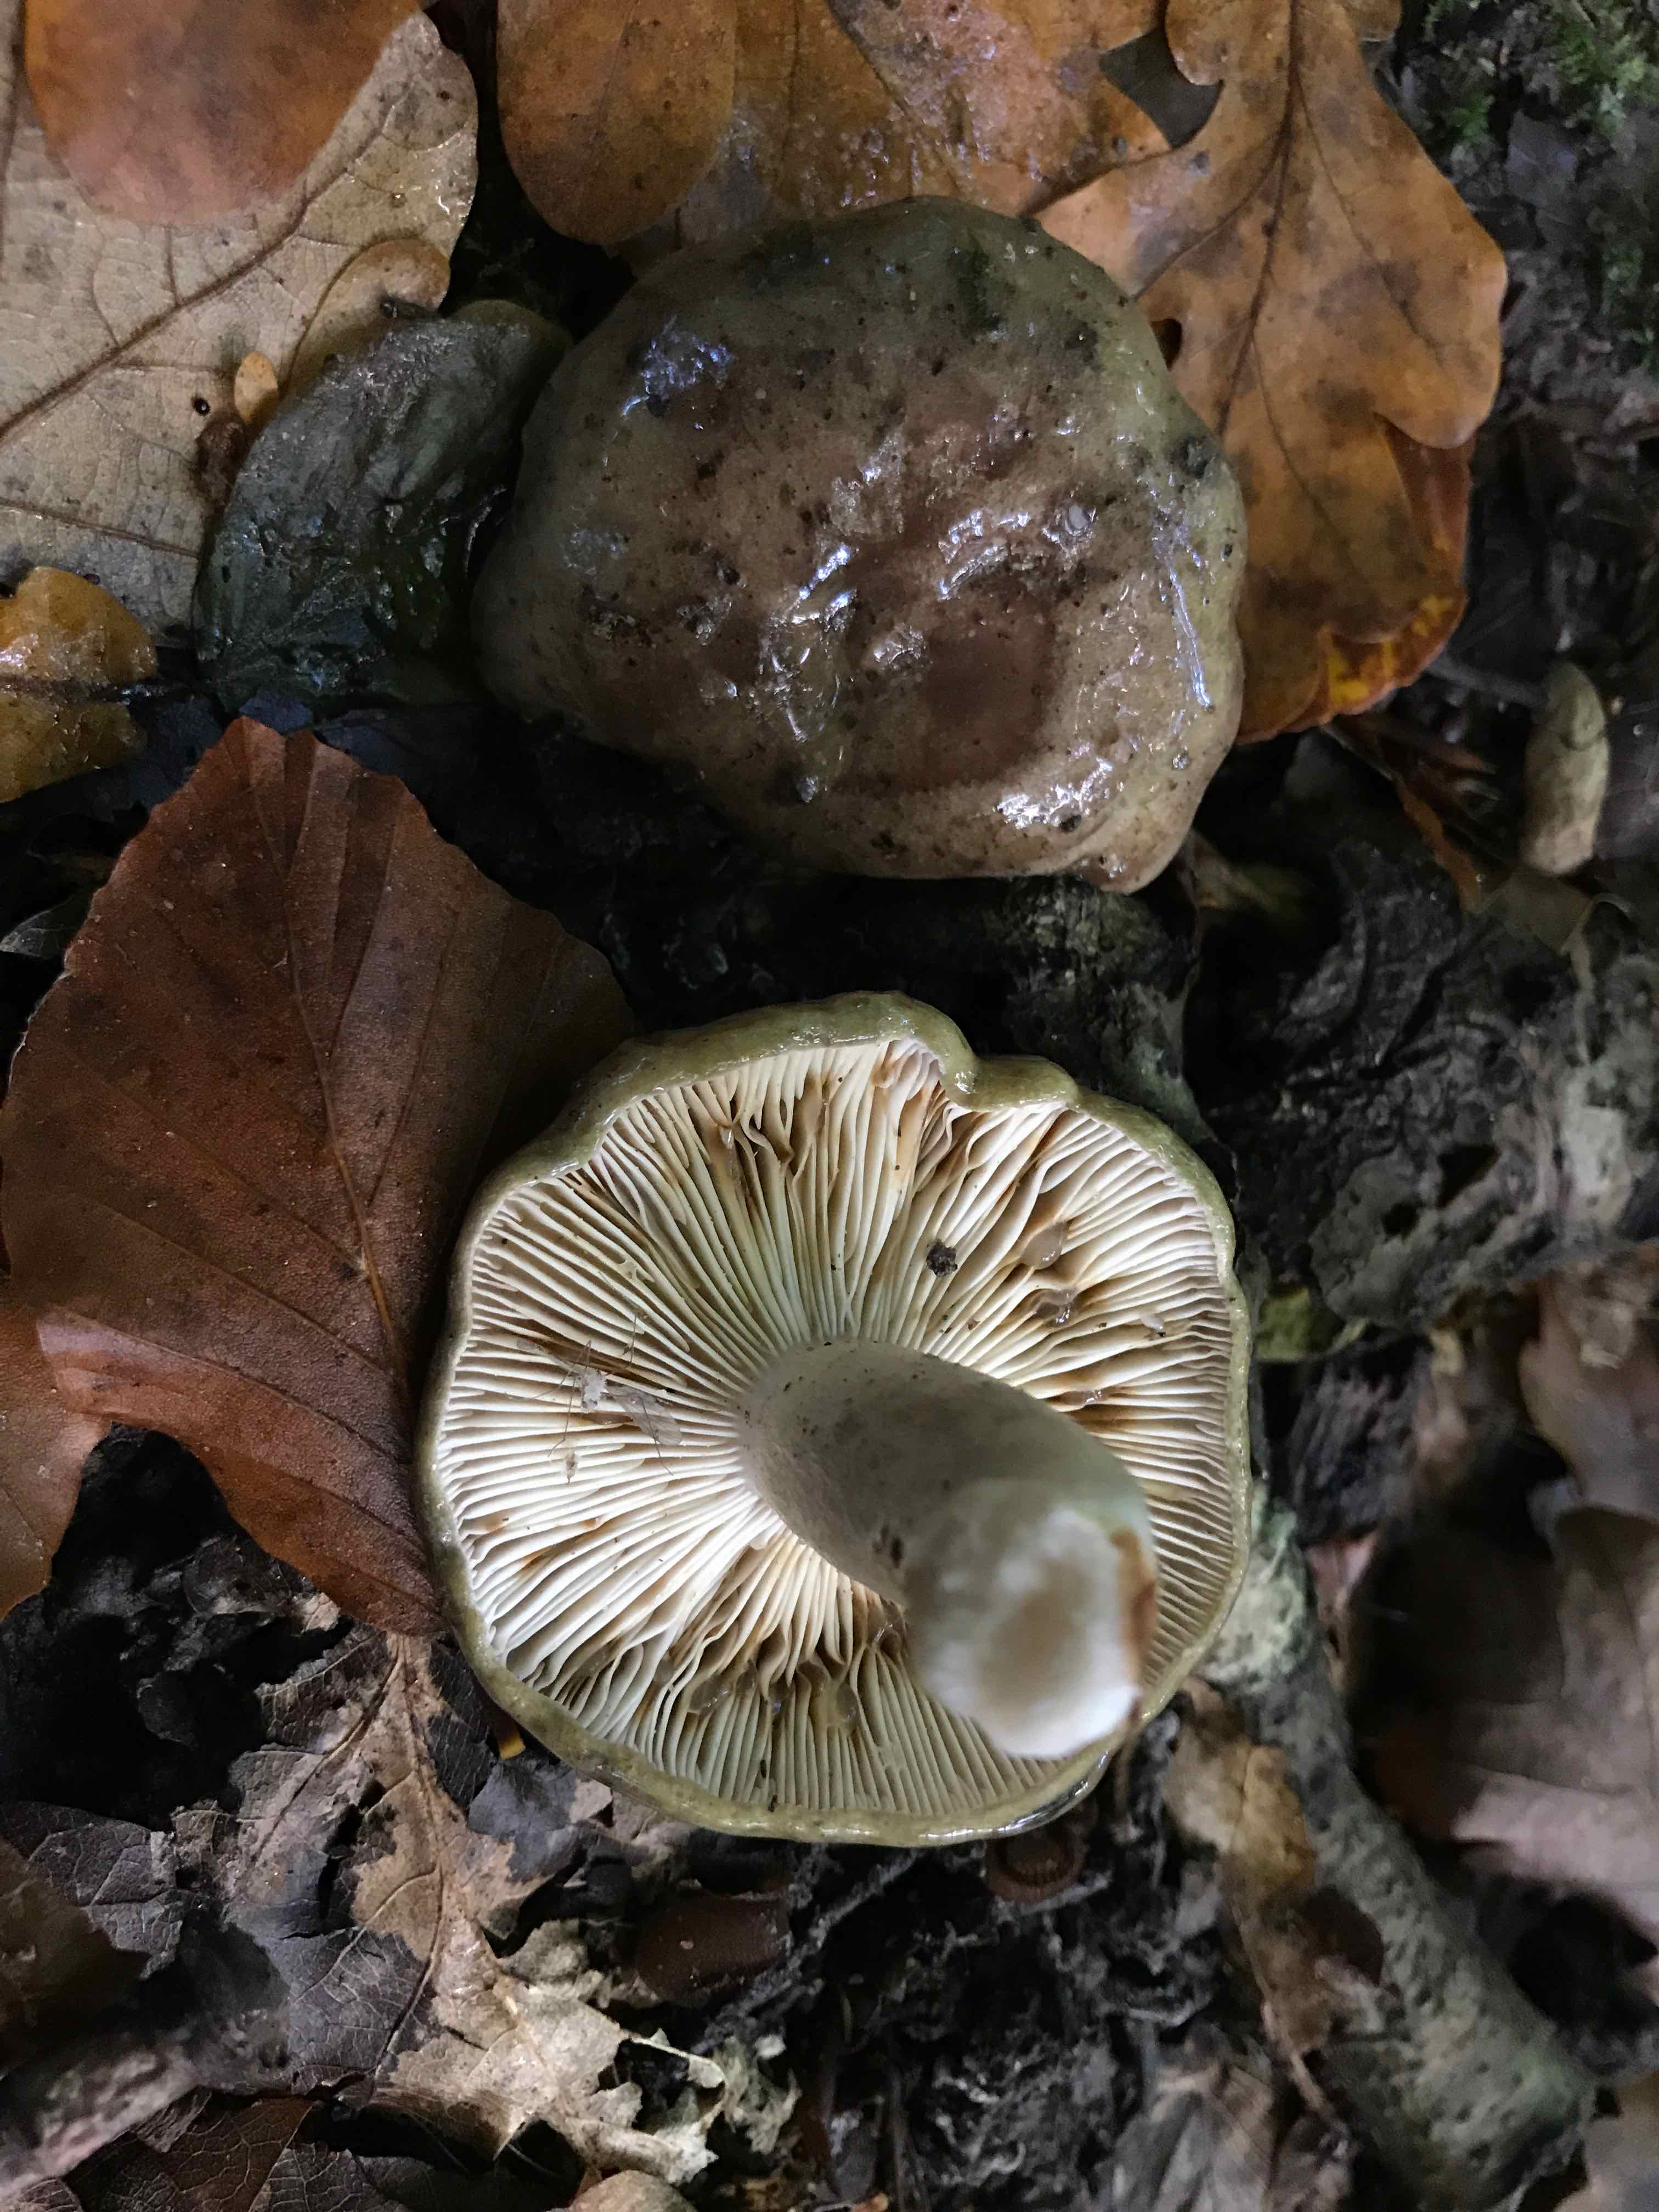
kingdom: Fungi
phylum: Basidiomycota
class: Agaricomycetes
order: Russulales
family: Russulaceae
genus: Lactarius
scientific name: Lactarius blennius
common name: dråbeplettet mælkehat
